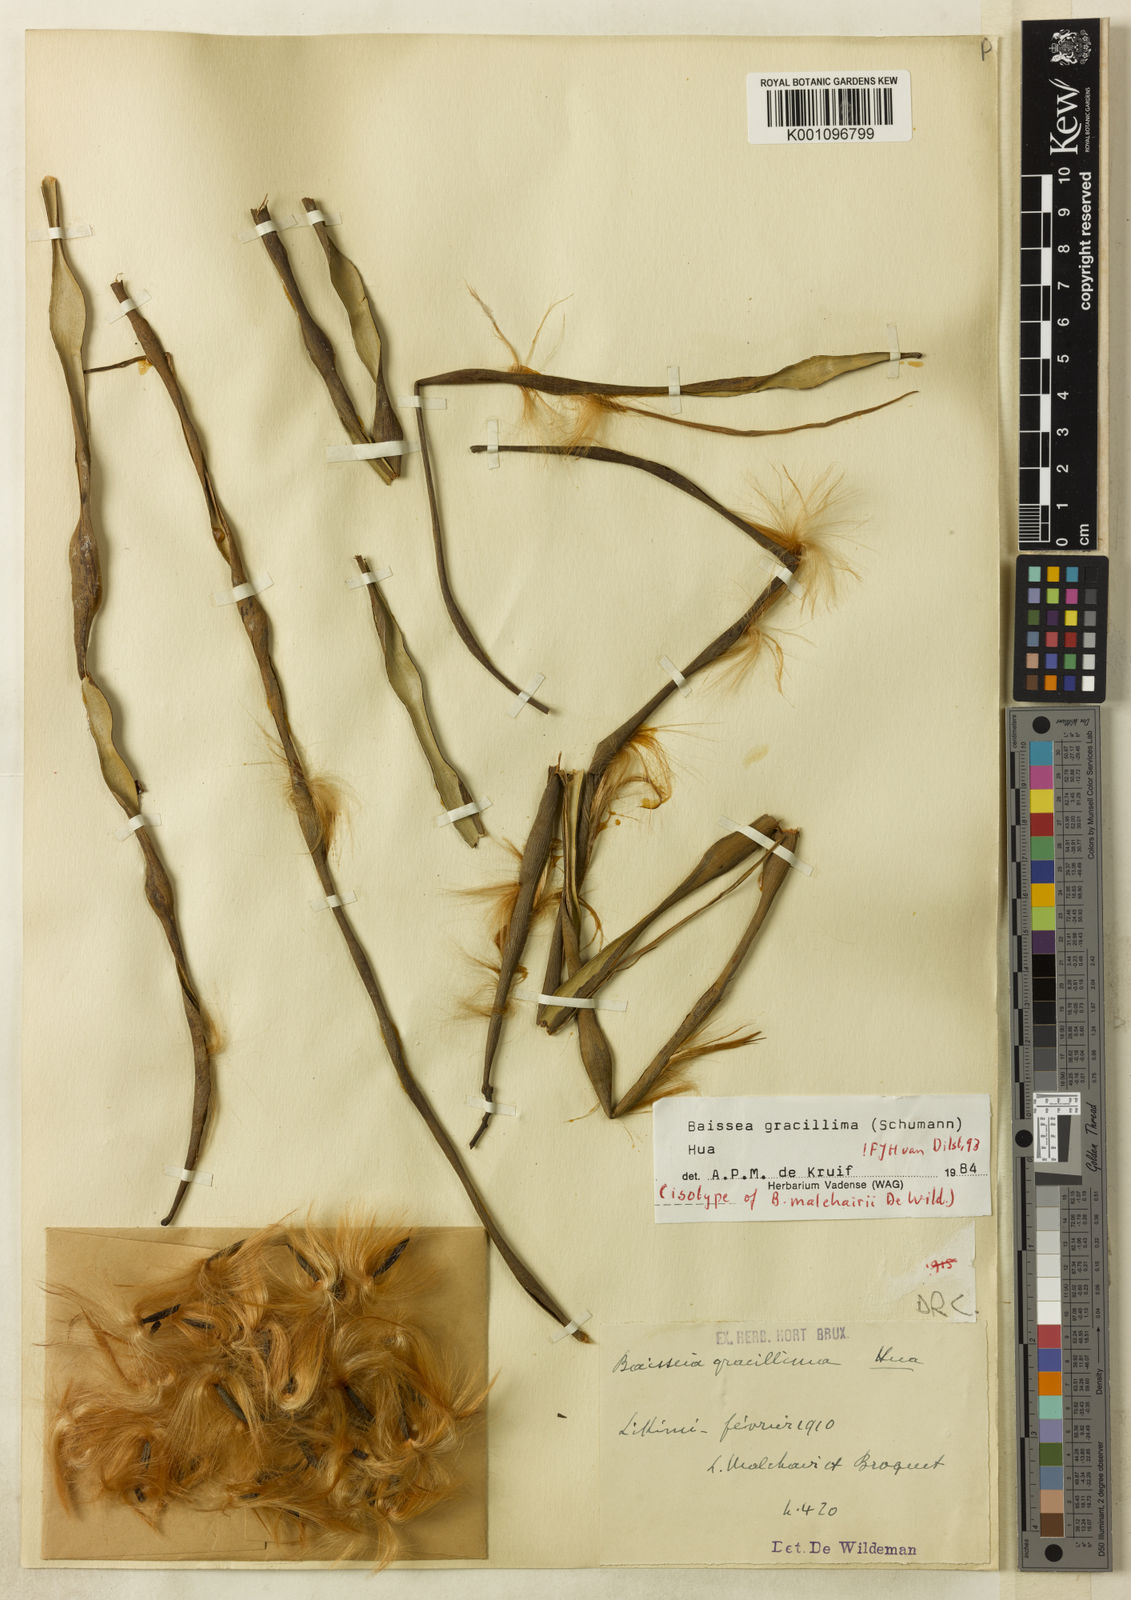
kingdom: Plantae
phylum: Tracheophyta
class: Magnoliopsida
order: Gentianales
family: Apocynaceae
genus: Baissea
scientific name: Baissea gracillima
